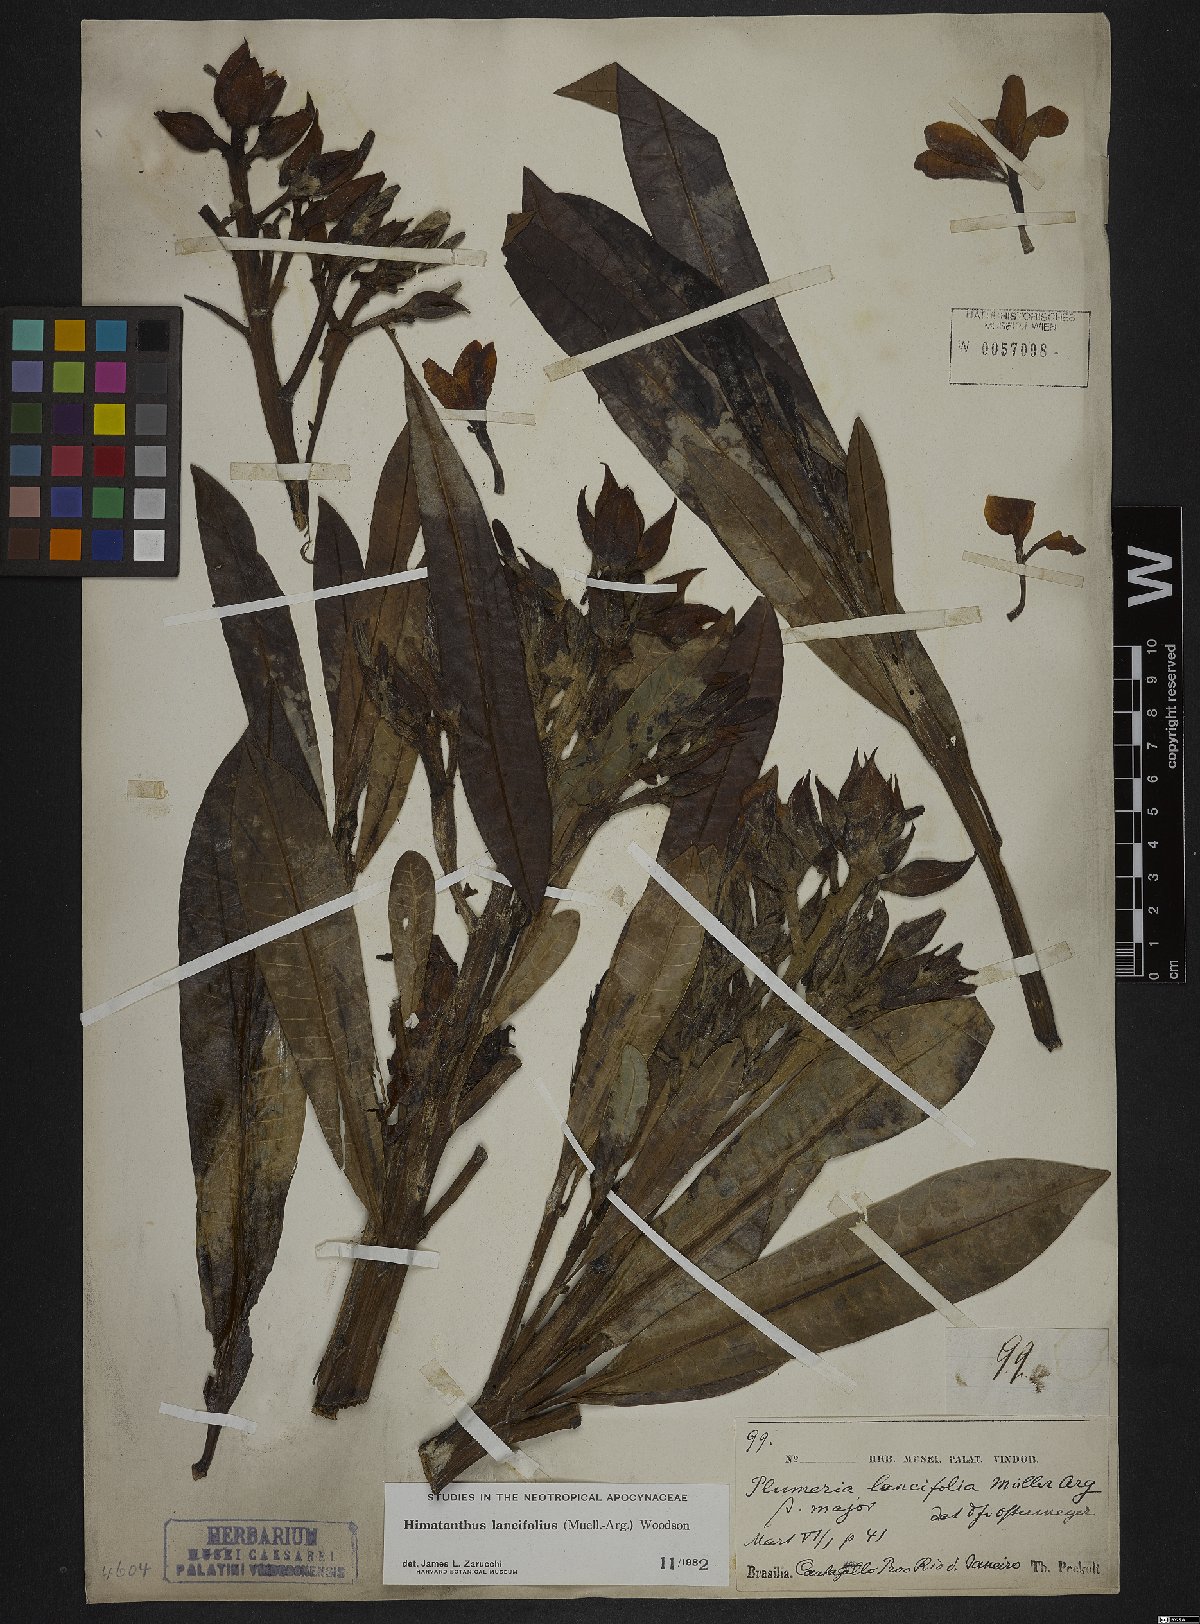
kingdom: Plantae
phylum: Tracheophyta
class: Magnoliopsida
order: Gentianales
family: Apocynaceae
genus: Himatanthus
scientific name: Himatanthus bracteatus
